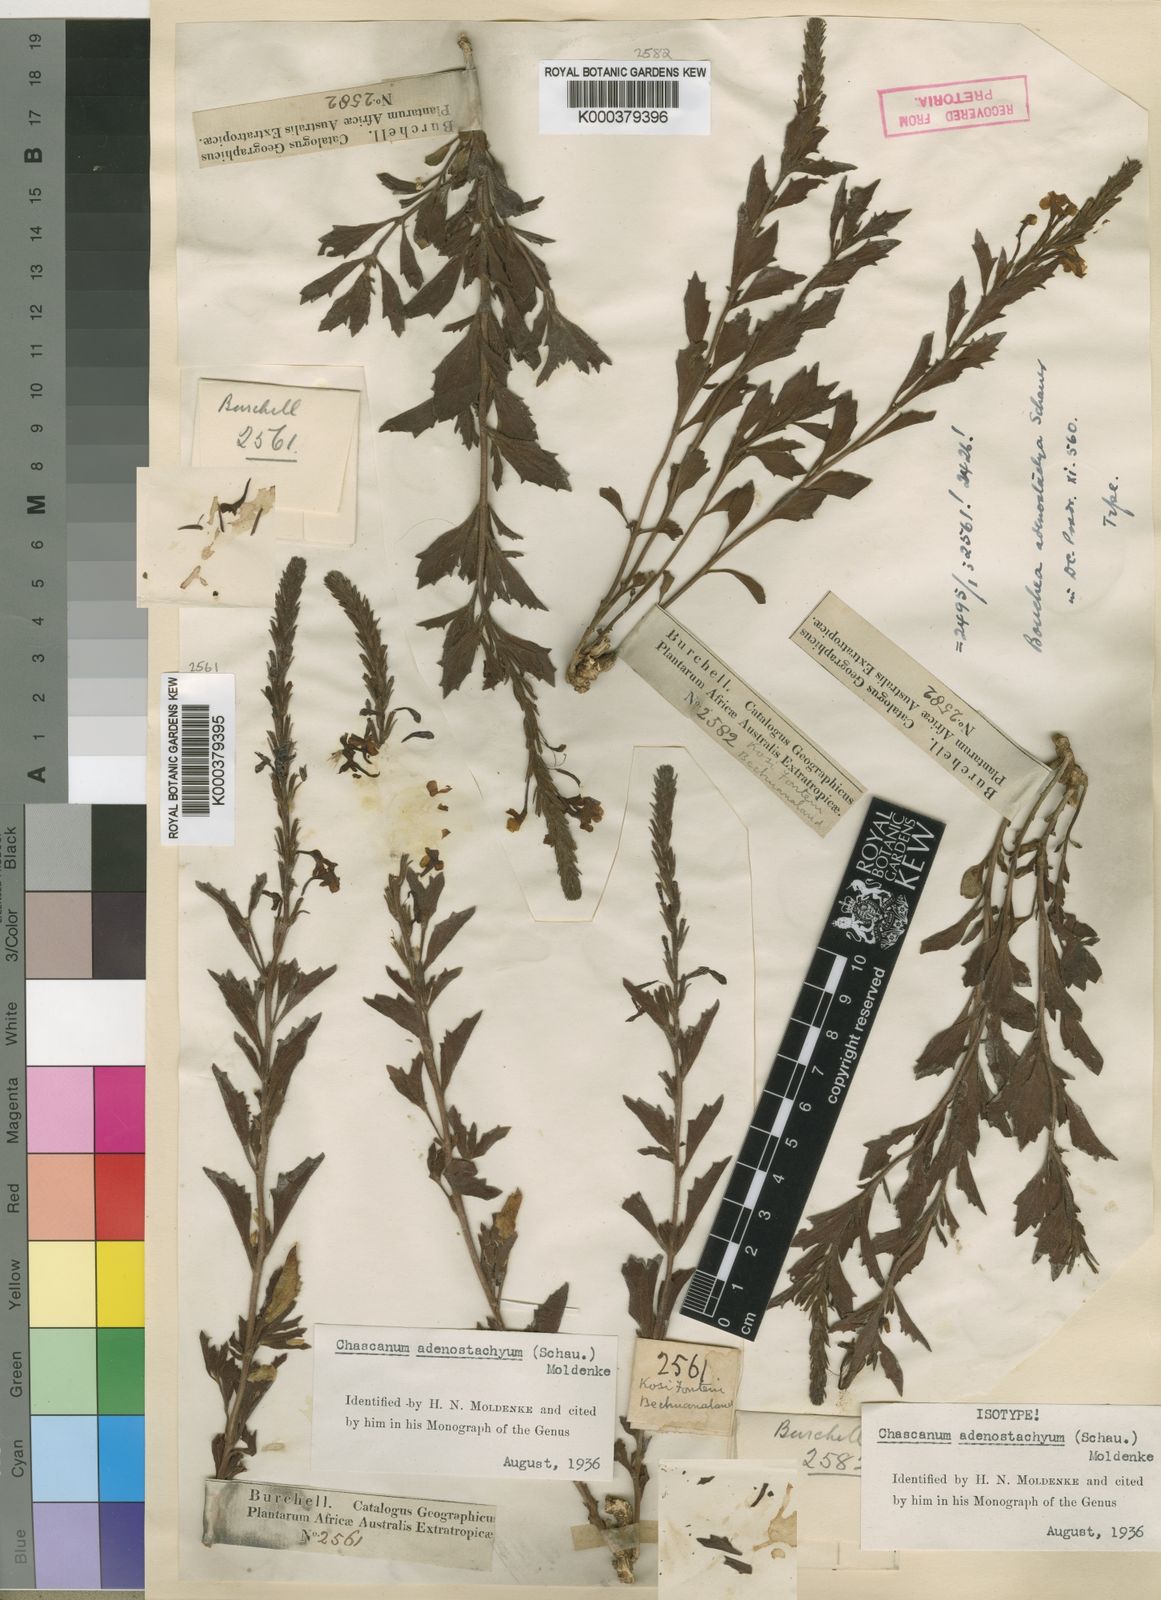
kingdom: Plantae
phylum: Tracheophyta
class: Magnoliopsida
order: Lamiales
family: Verbenaceae
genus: Chascanum
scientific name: Chascanum adenostachyum
